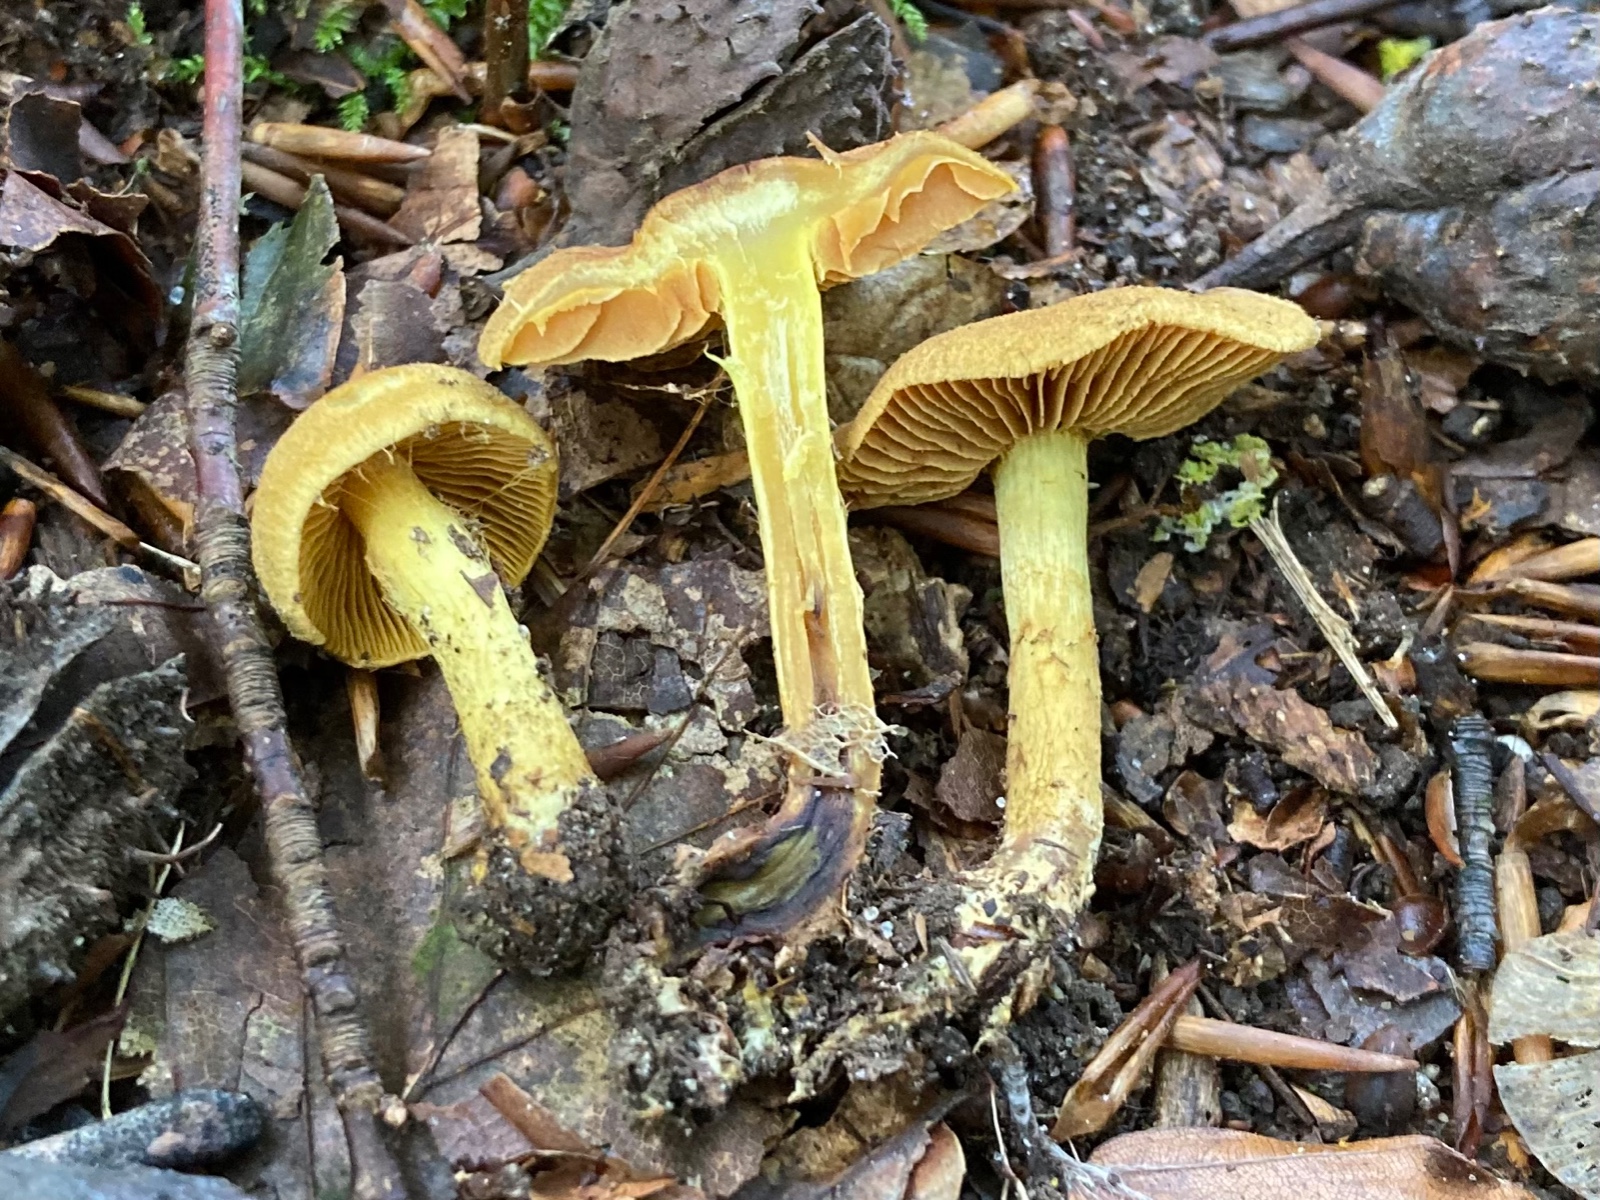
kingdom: Fungi
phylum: Basidiomycota
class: Agaricomycetes
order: Agaricales
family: Cortinariaceae
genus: Cortinarius
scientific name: Cortinarius croceus
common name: Saffron webcap
